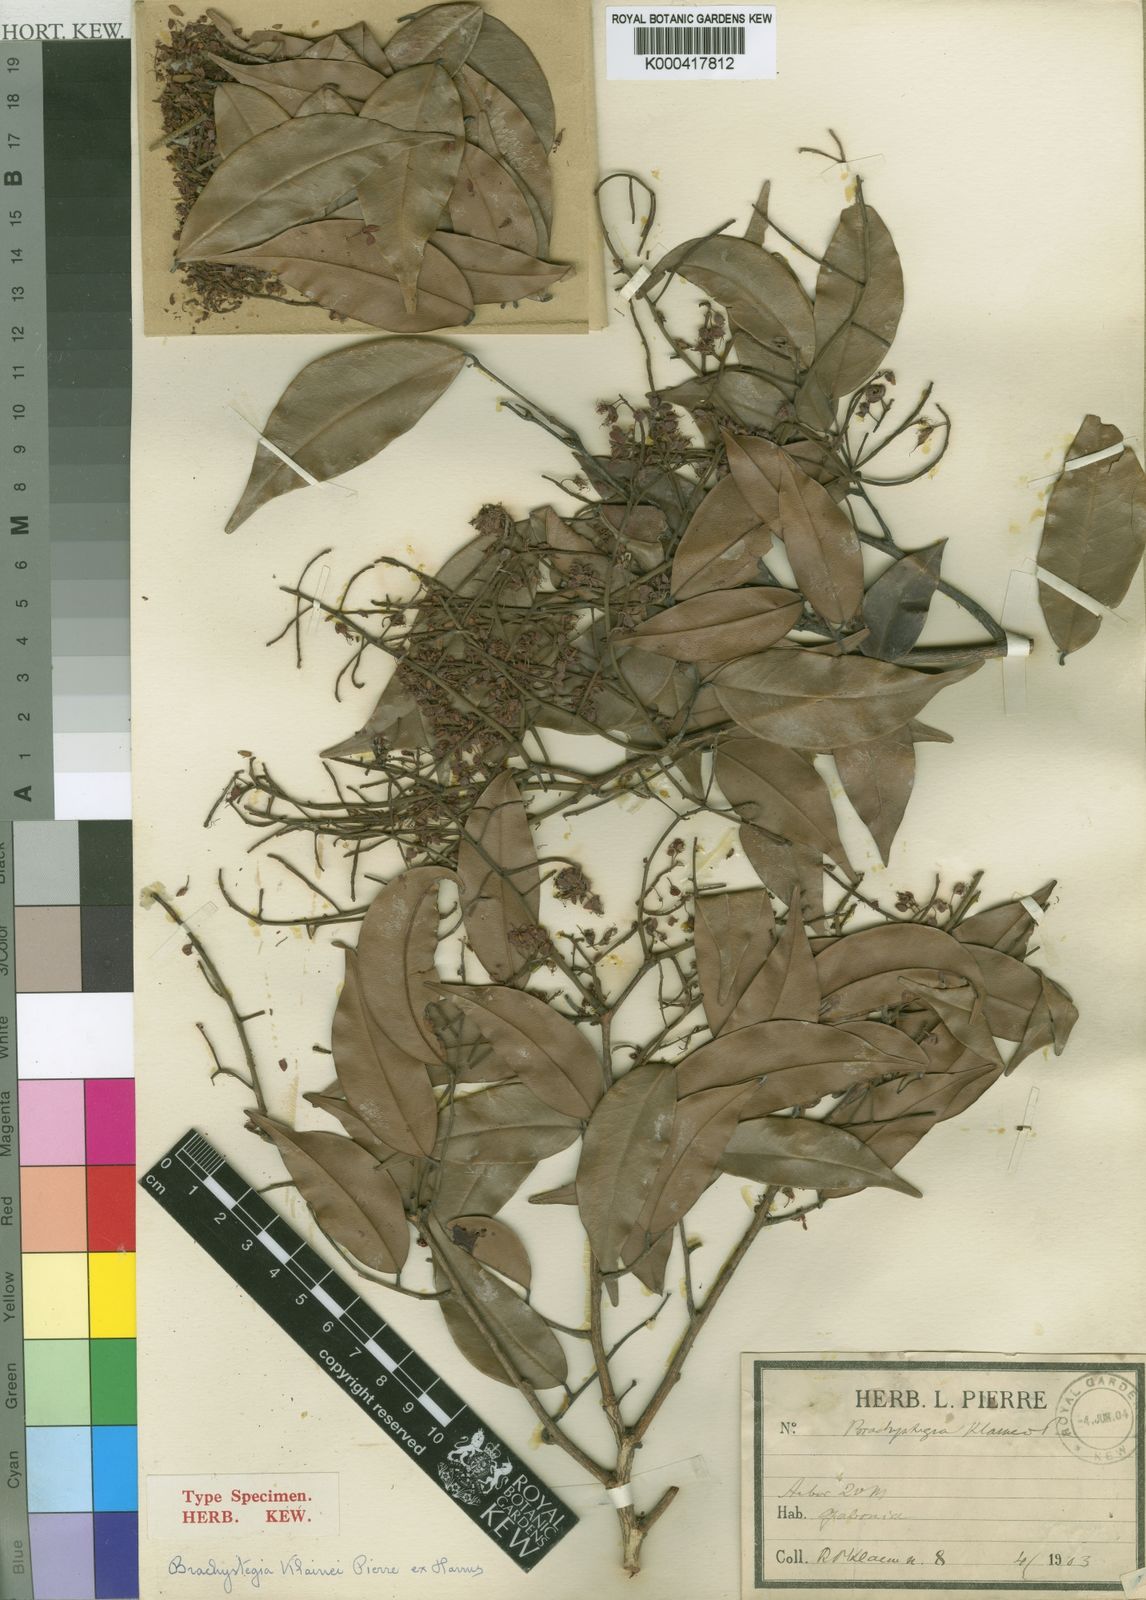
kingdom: Plantae
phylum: Tracheophyta
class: Magnoliopsida
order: Fabales
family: Fabaceae
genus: Librevillea
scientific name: Librevillea klainei
